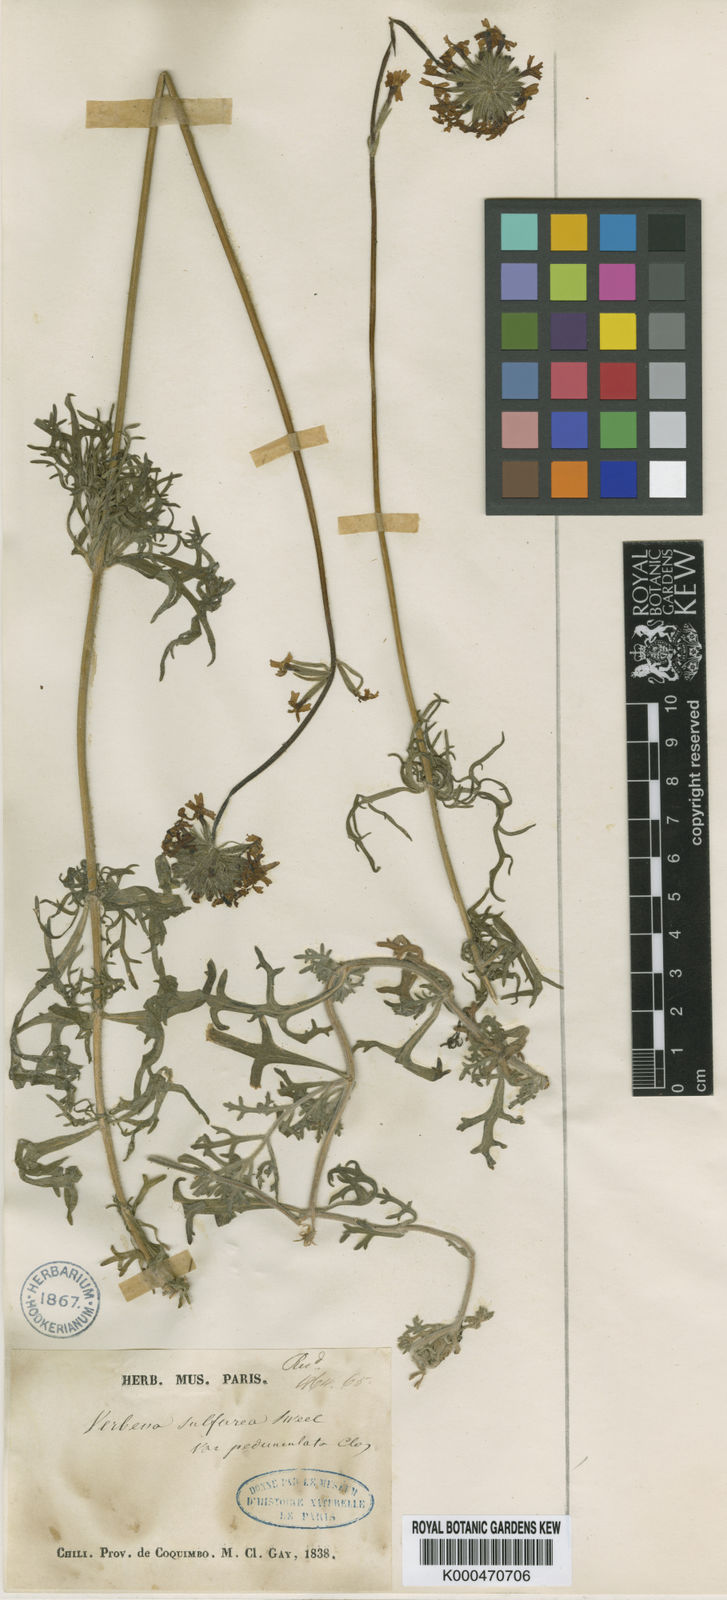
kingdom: Plantae
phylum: Tracheophyta
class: Magnoliopsida
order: Lamiales
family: Verbenaceae
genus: Verbena
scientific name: Verbena sulphurea
